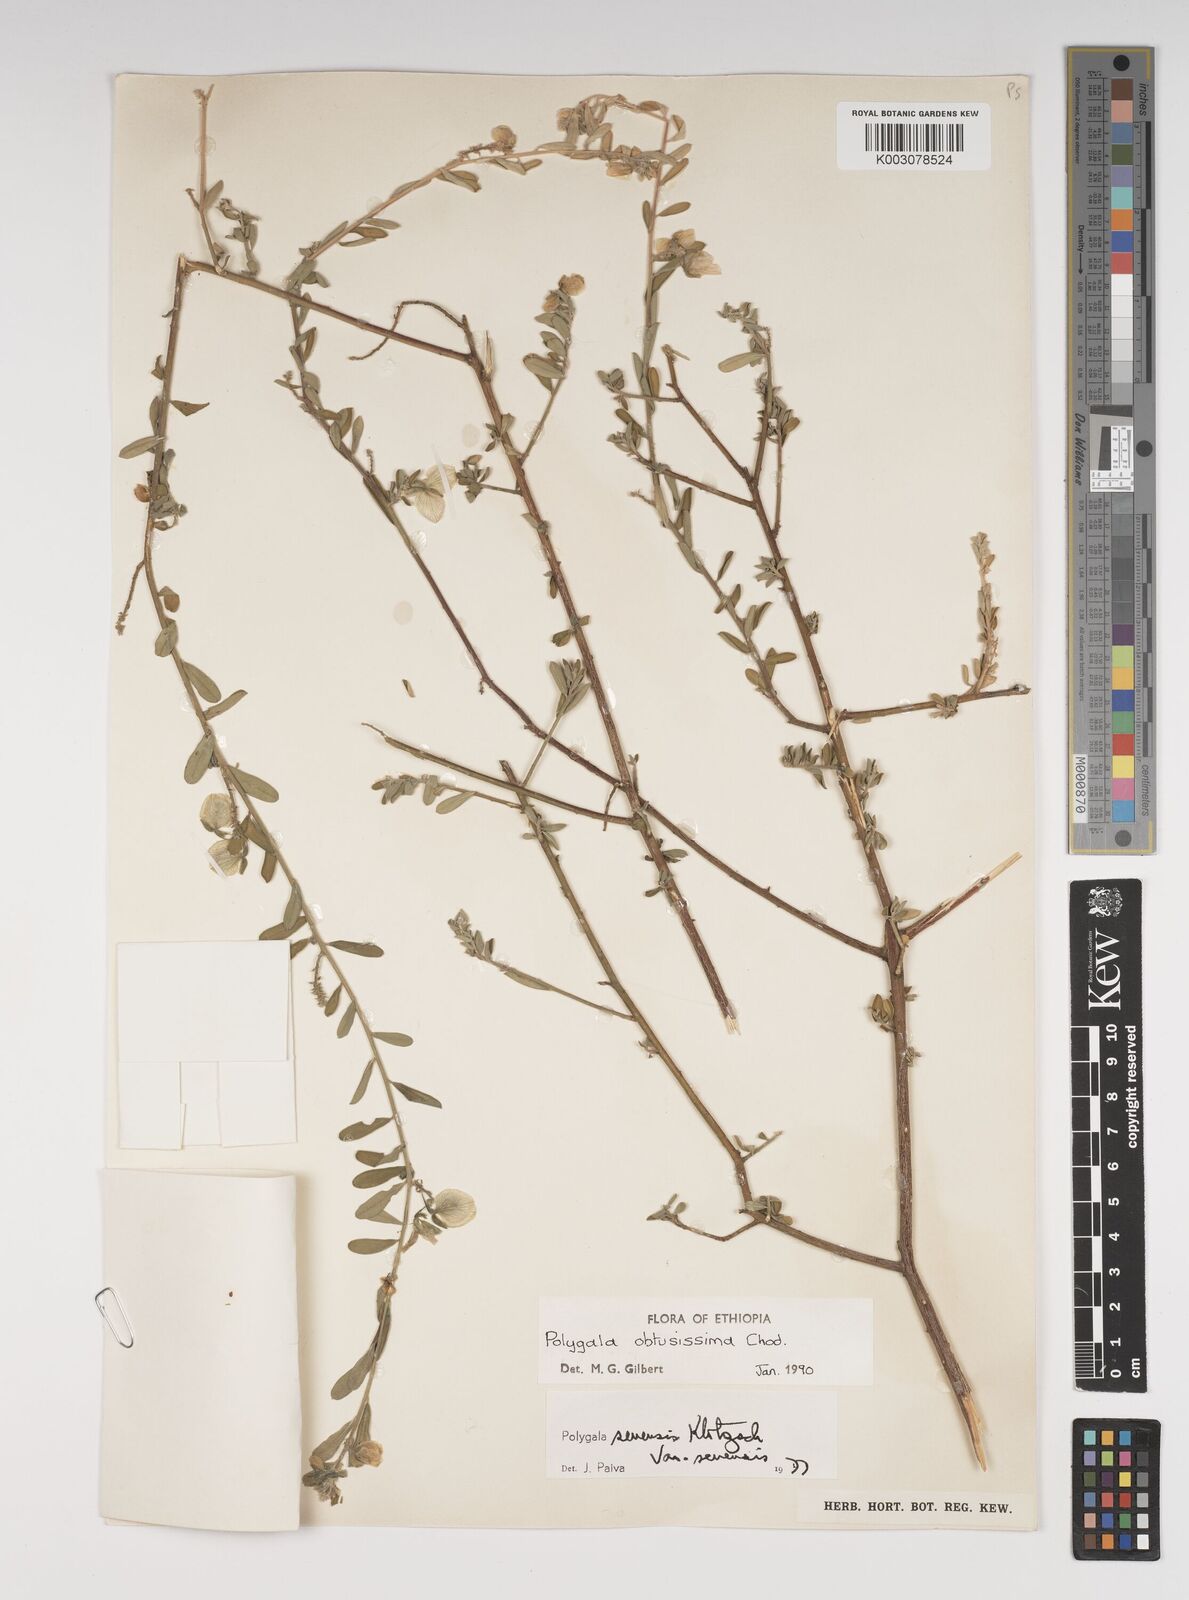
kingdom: Plantae
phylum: Tracheophyta
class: Magnoliopsida
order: Fabales
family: Polygalaceae
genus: Polygala
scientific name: Polygala senensis
